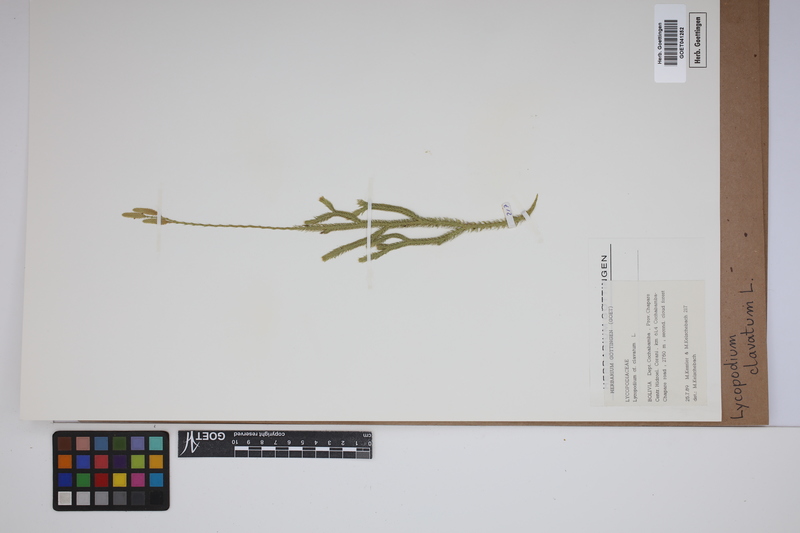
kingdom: Plantae
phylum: Tracheophyta
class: Lycopodiopsida
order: Lycopodiales
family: Lycopodiaceae
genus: Lycopodium
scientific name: Lycopodium clavatum
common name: Stag's-horn clubmoss
